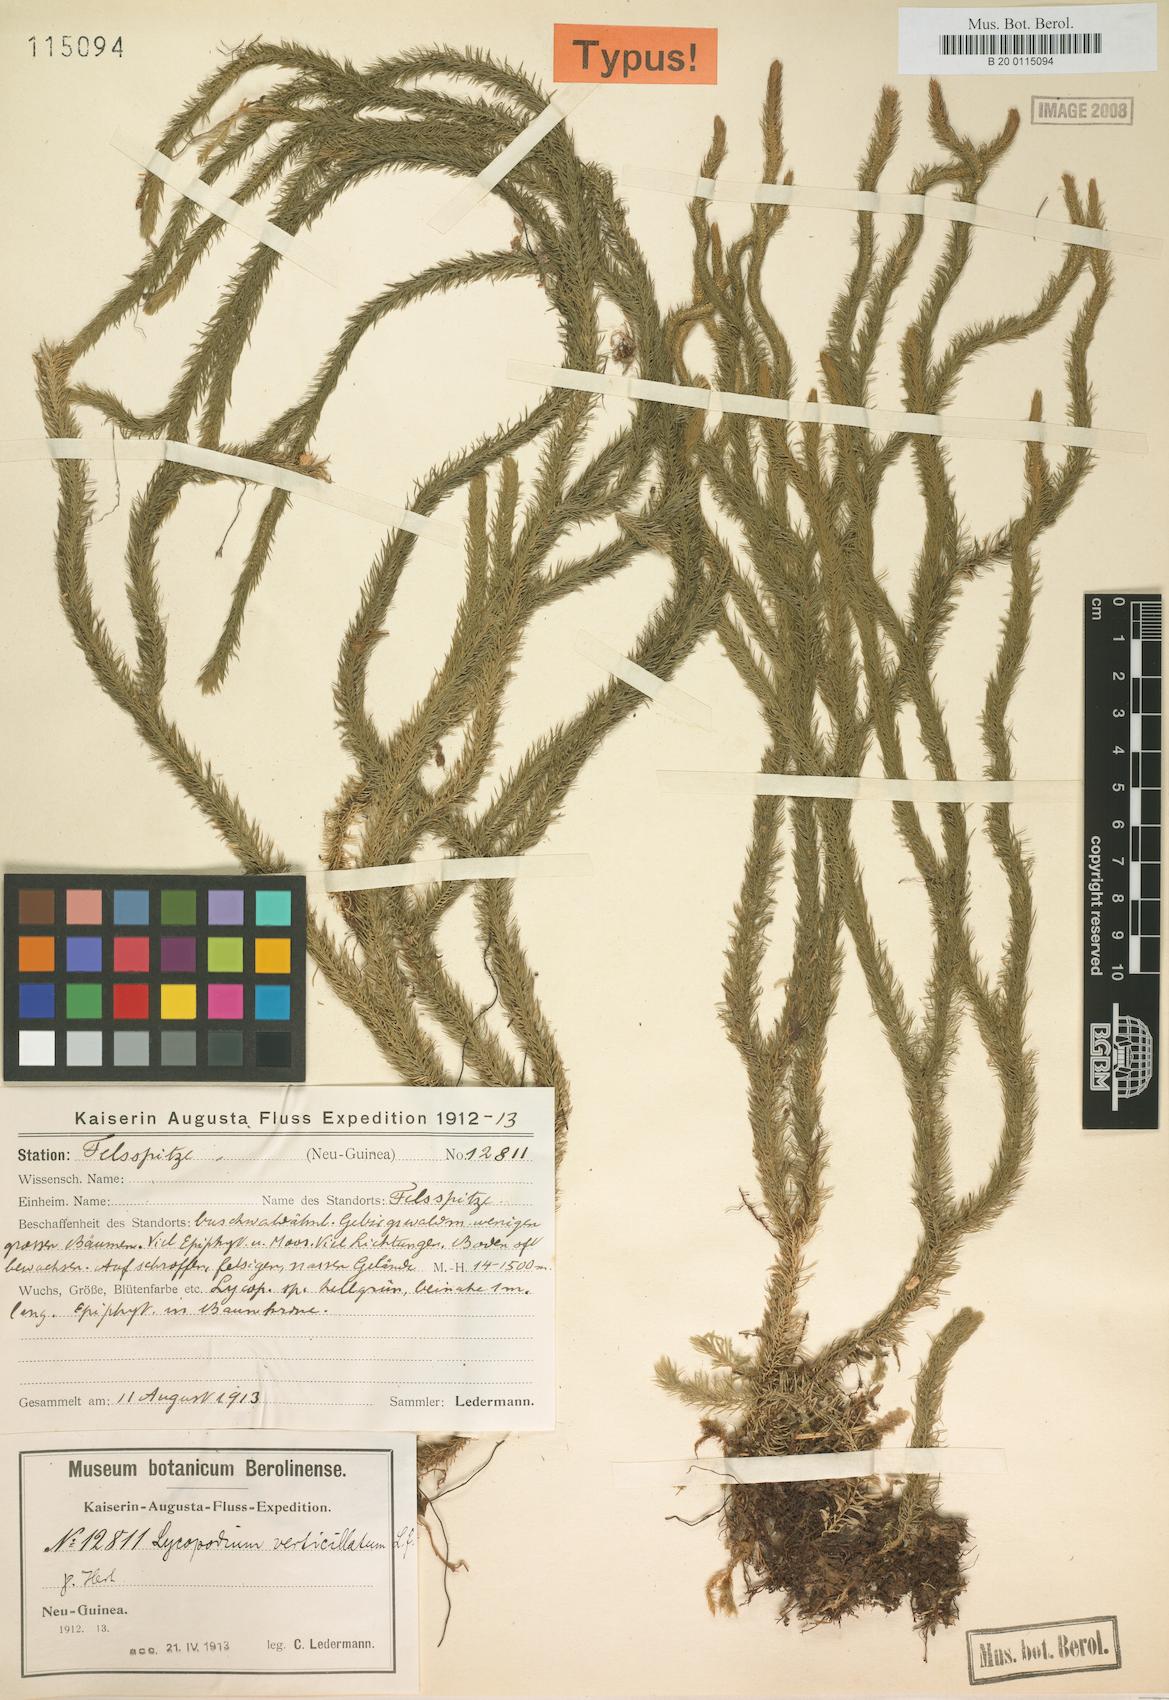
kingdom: Plantae
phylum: Tracheophyta
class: Lycopodiopsida
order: Lycopodiales
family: Lycopodiaceae
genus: Phlegmariurus
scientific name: Phlegmariurus verticillatus
